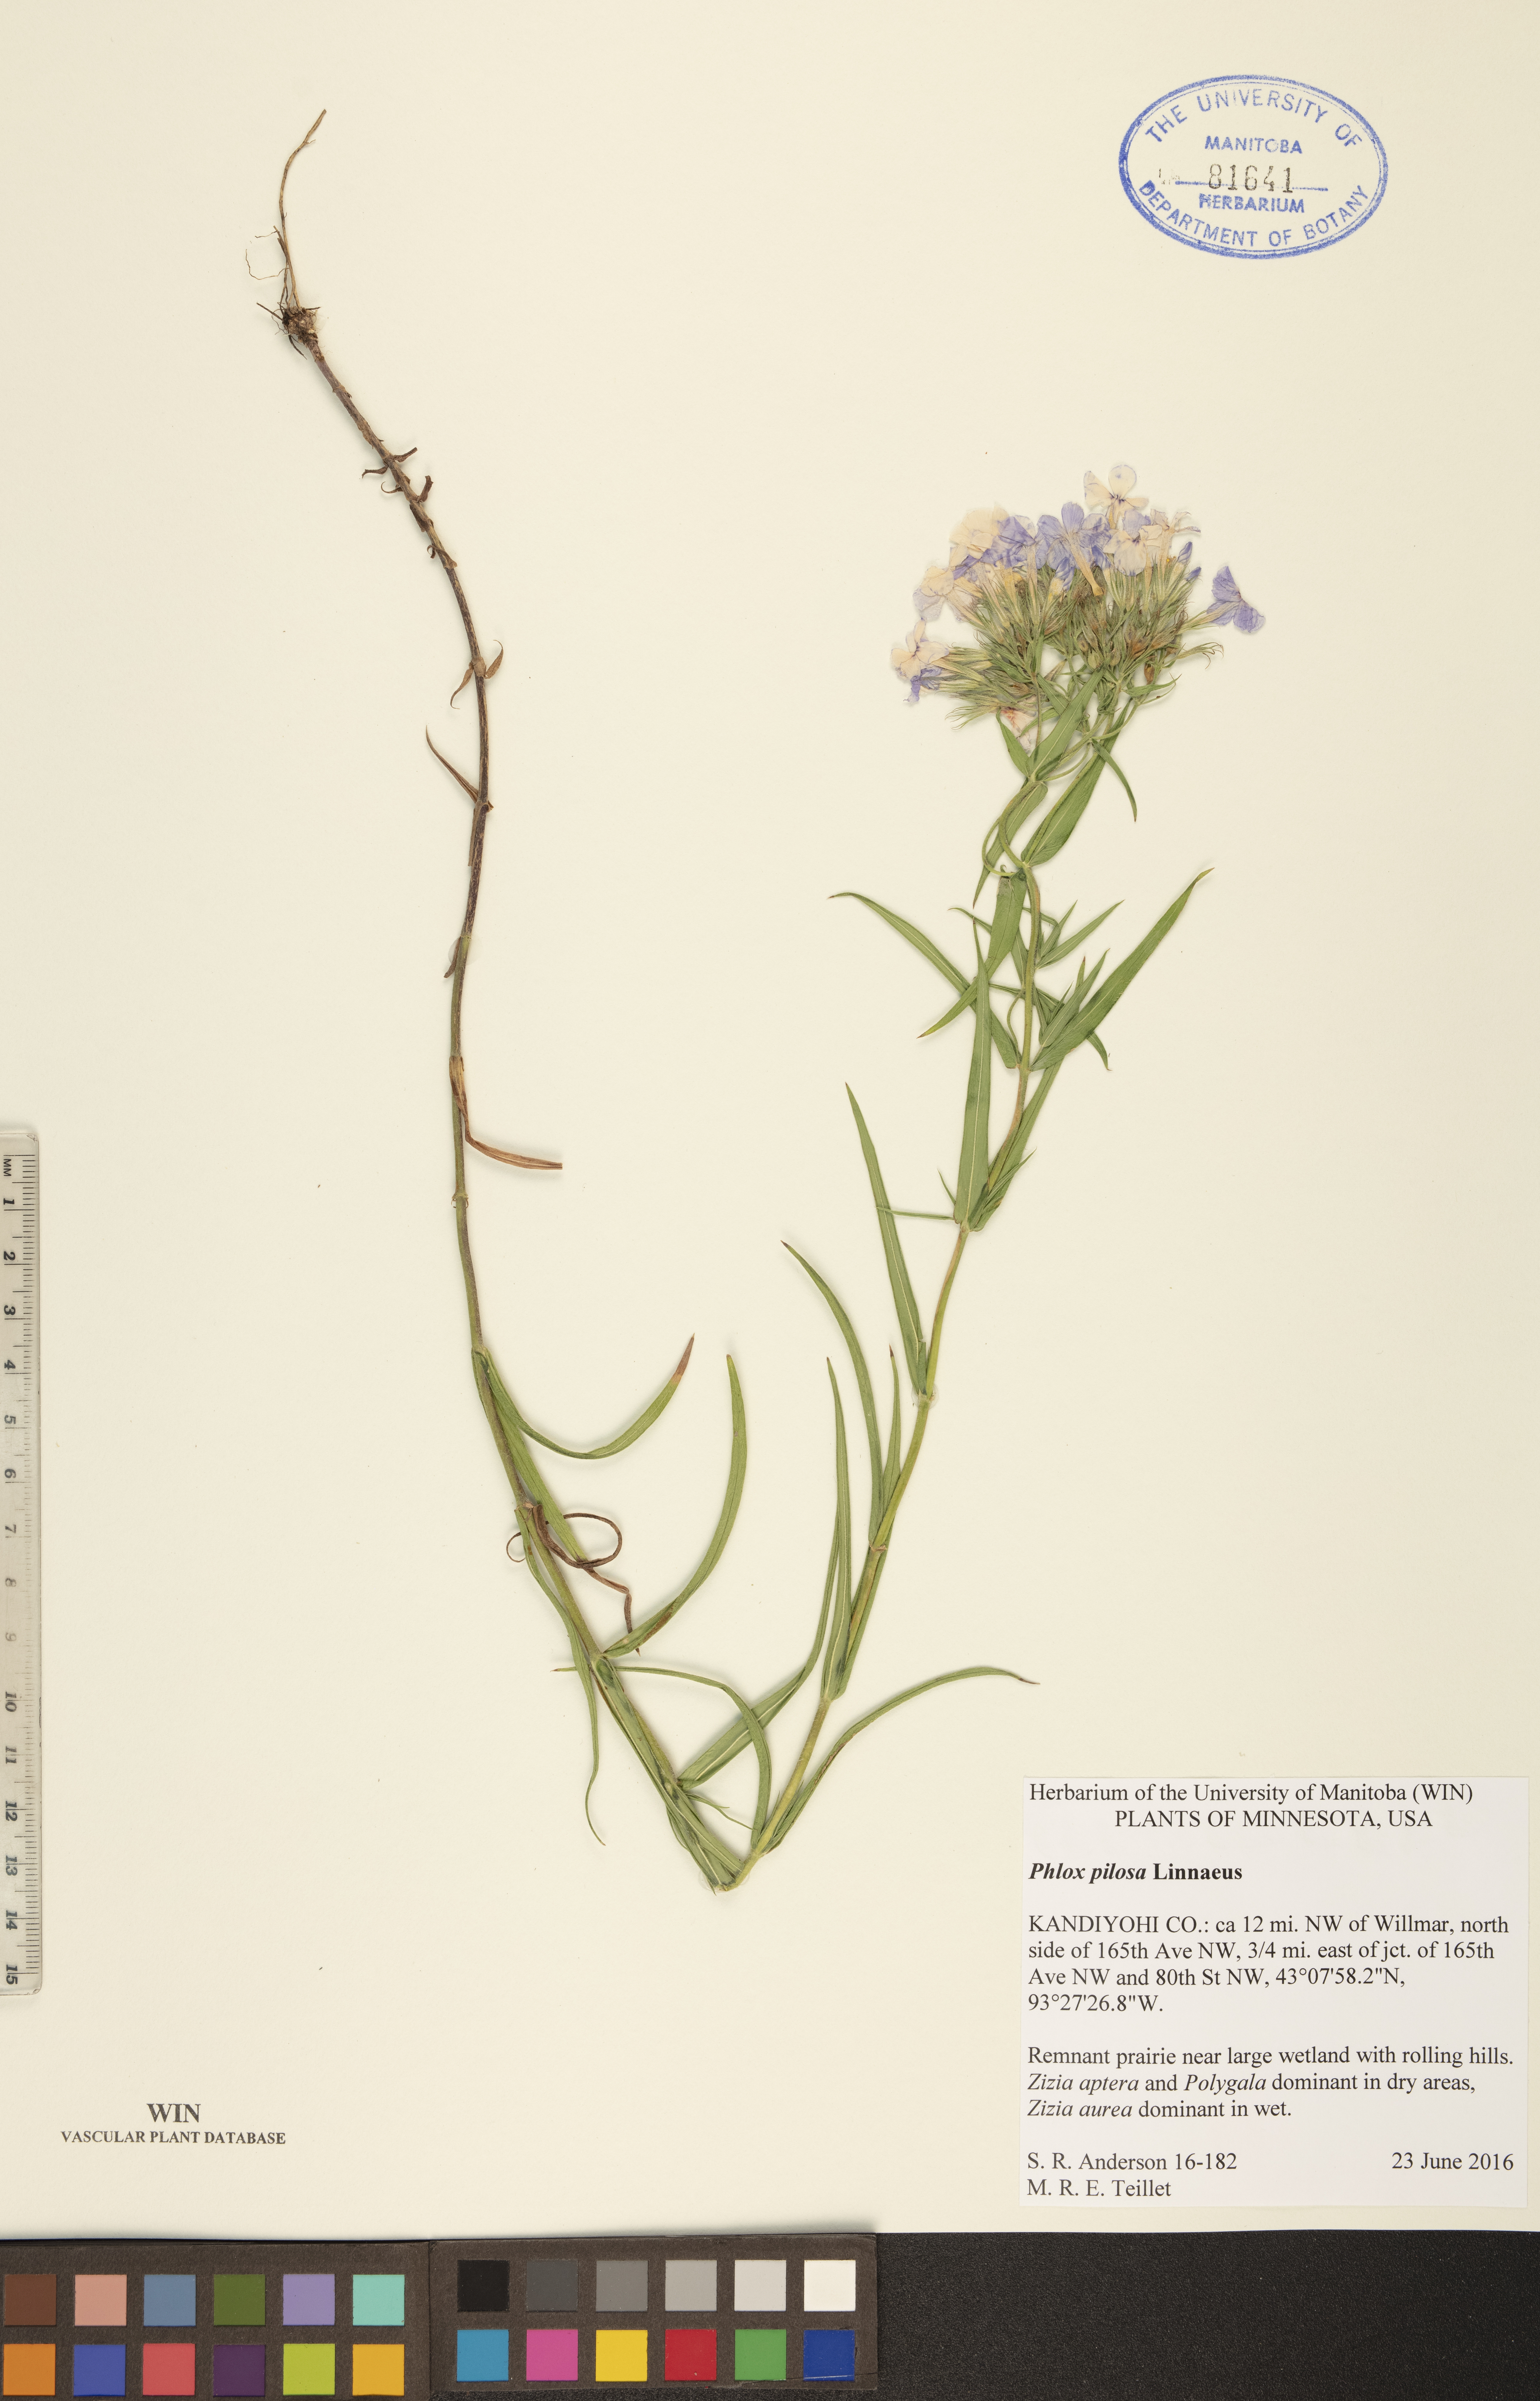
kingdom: Plantae
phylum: Tracheophyta
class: Magnoliopsida
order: Ericales
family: Polemoniaceae
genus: Phlox
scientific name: Phlox pilosa
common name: Prairie phlox
